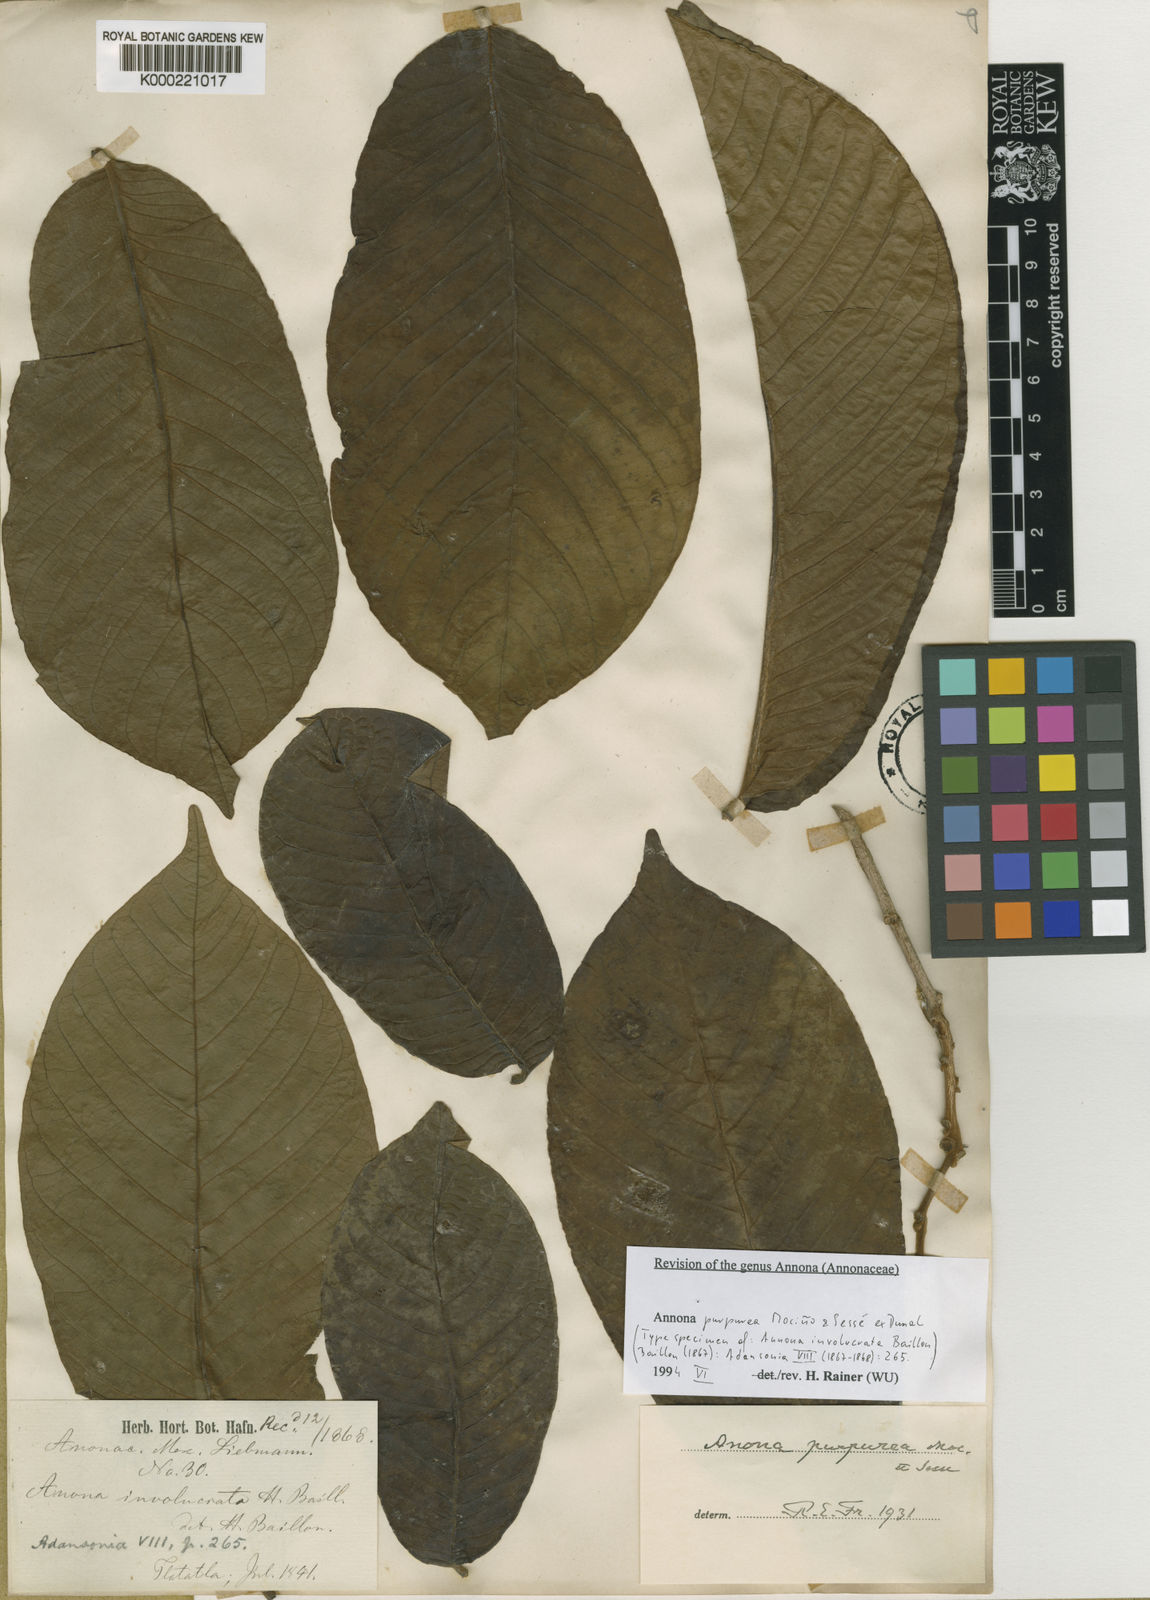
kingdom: Plantae
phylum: Tracheophyta
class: Magnoliopsida
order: Magnoliales
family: Annonaceae
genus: Annona
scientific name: Annona
